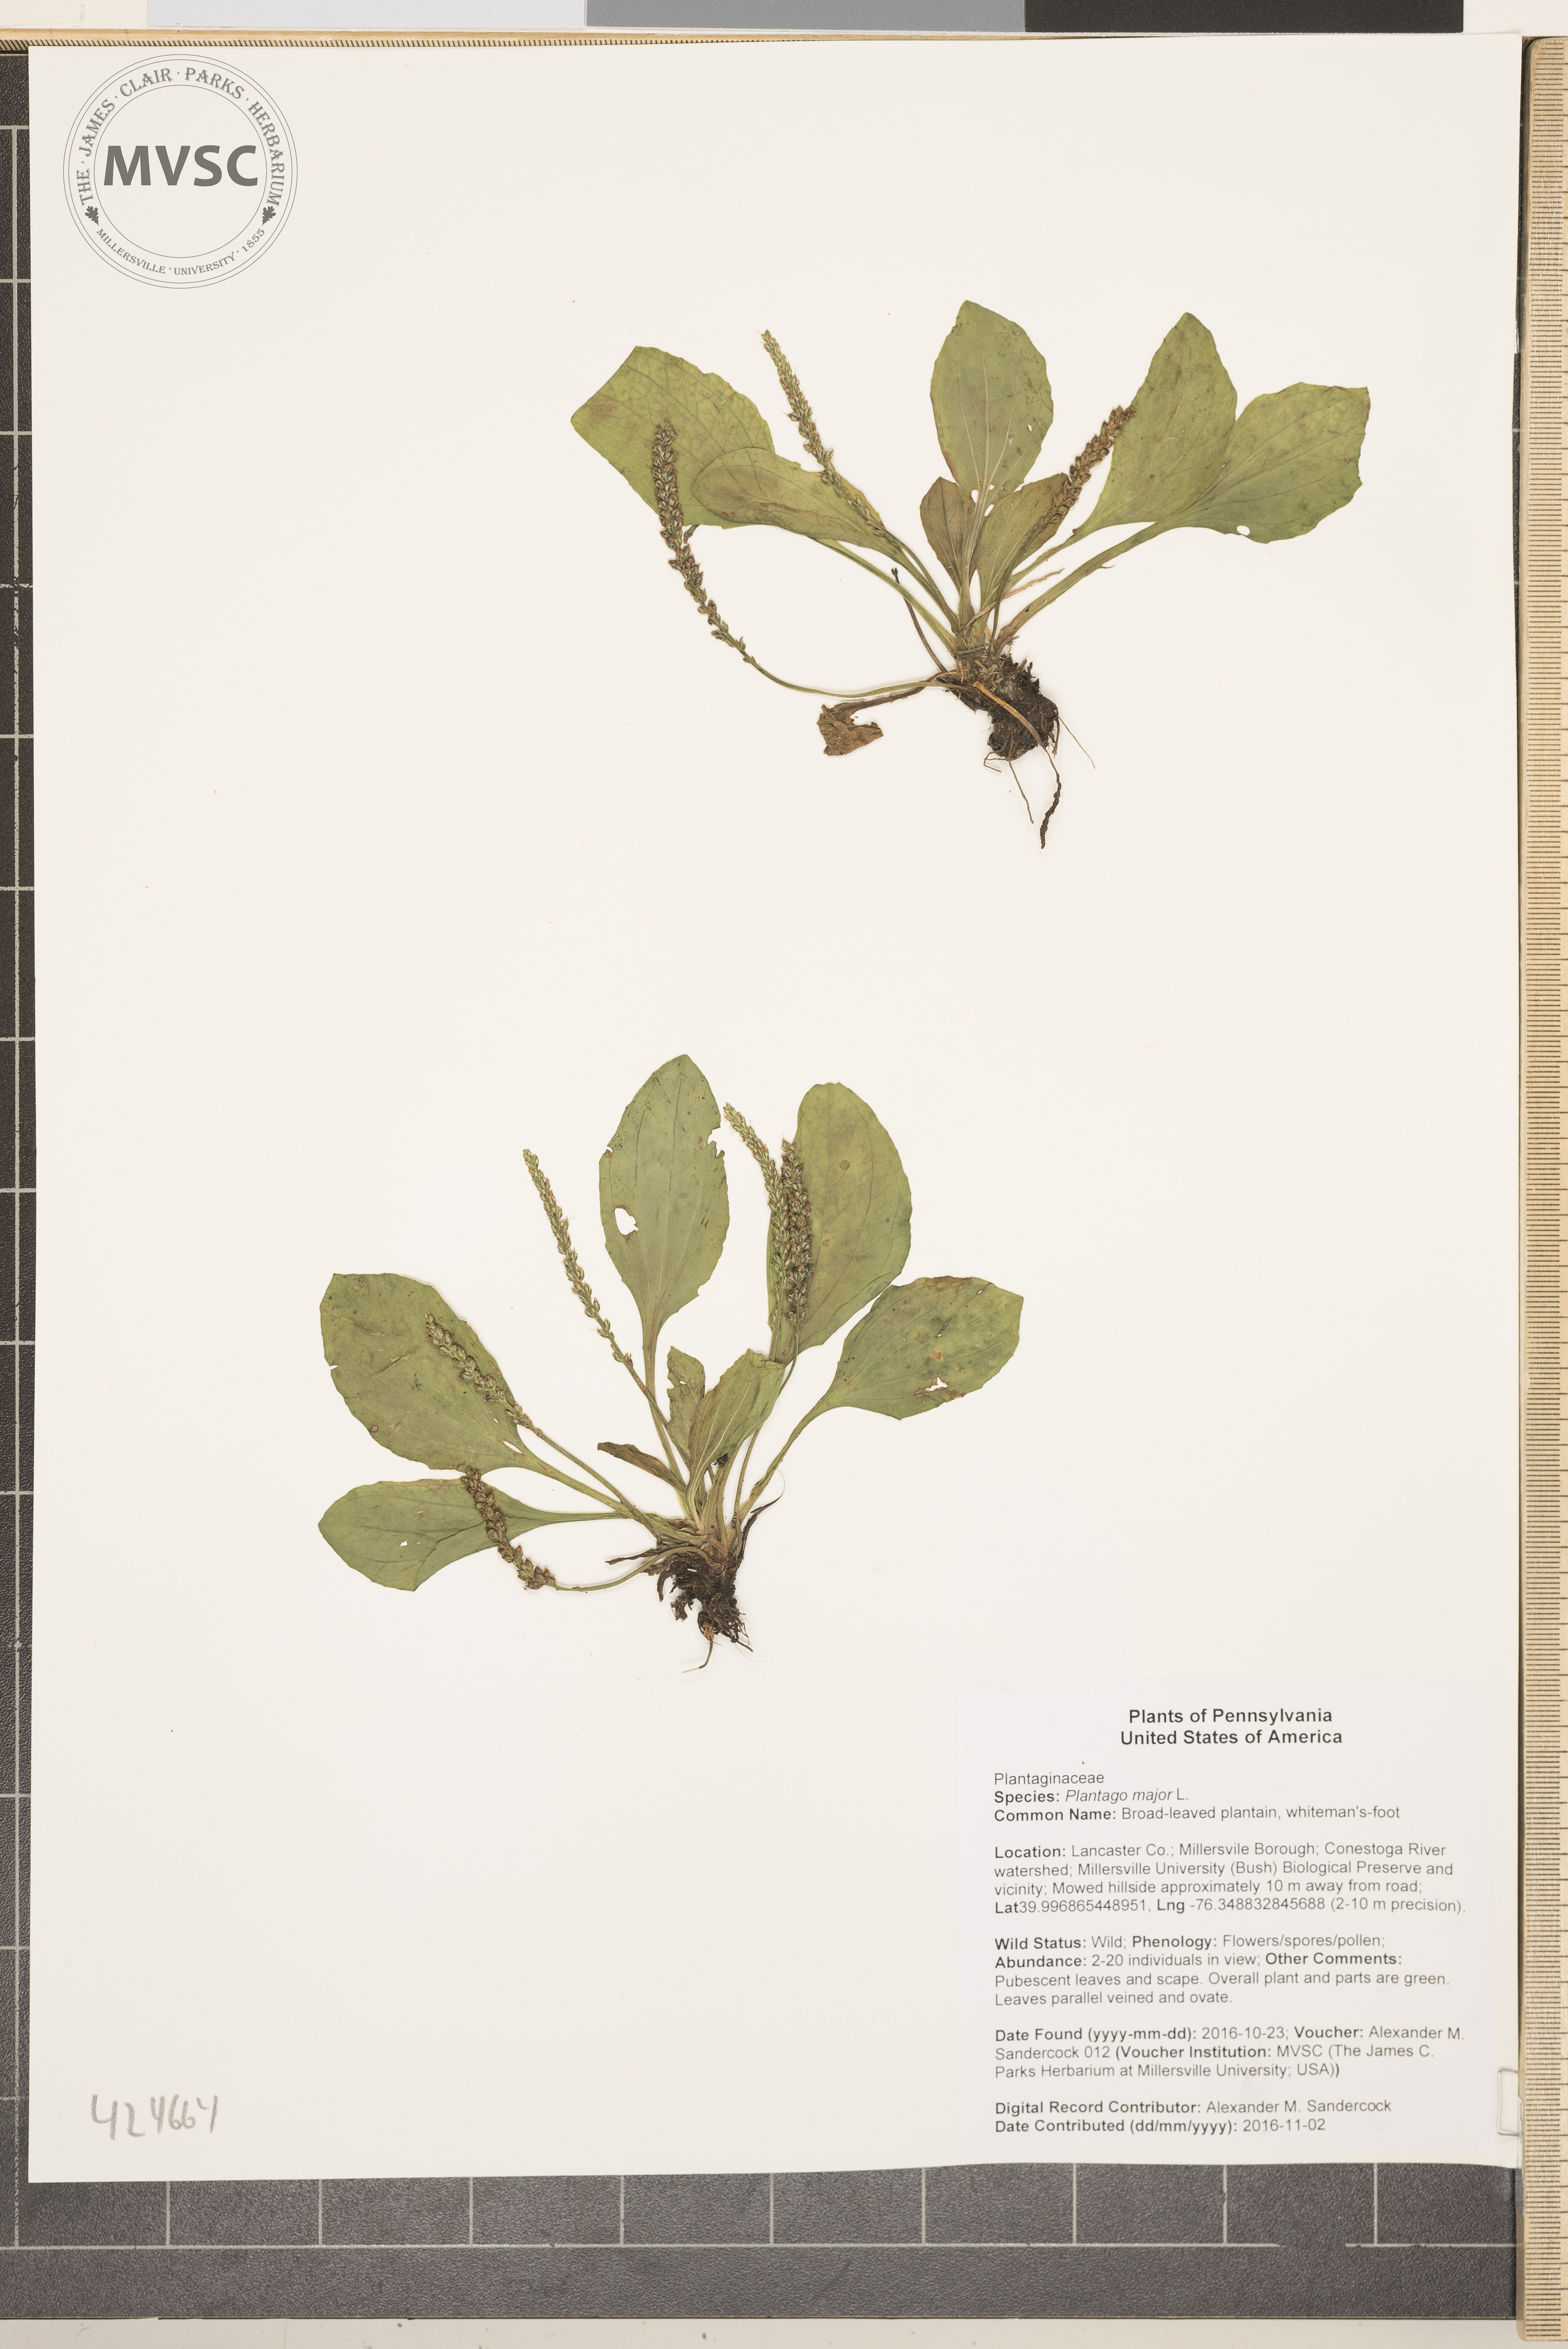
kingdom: Plantae
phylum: Tracheophyta
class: Magnoliopsida
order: Lamiales
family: Plantaginaceae
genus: Plantago
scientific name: Plantago major
